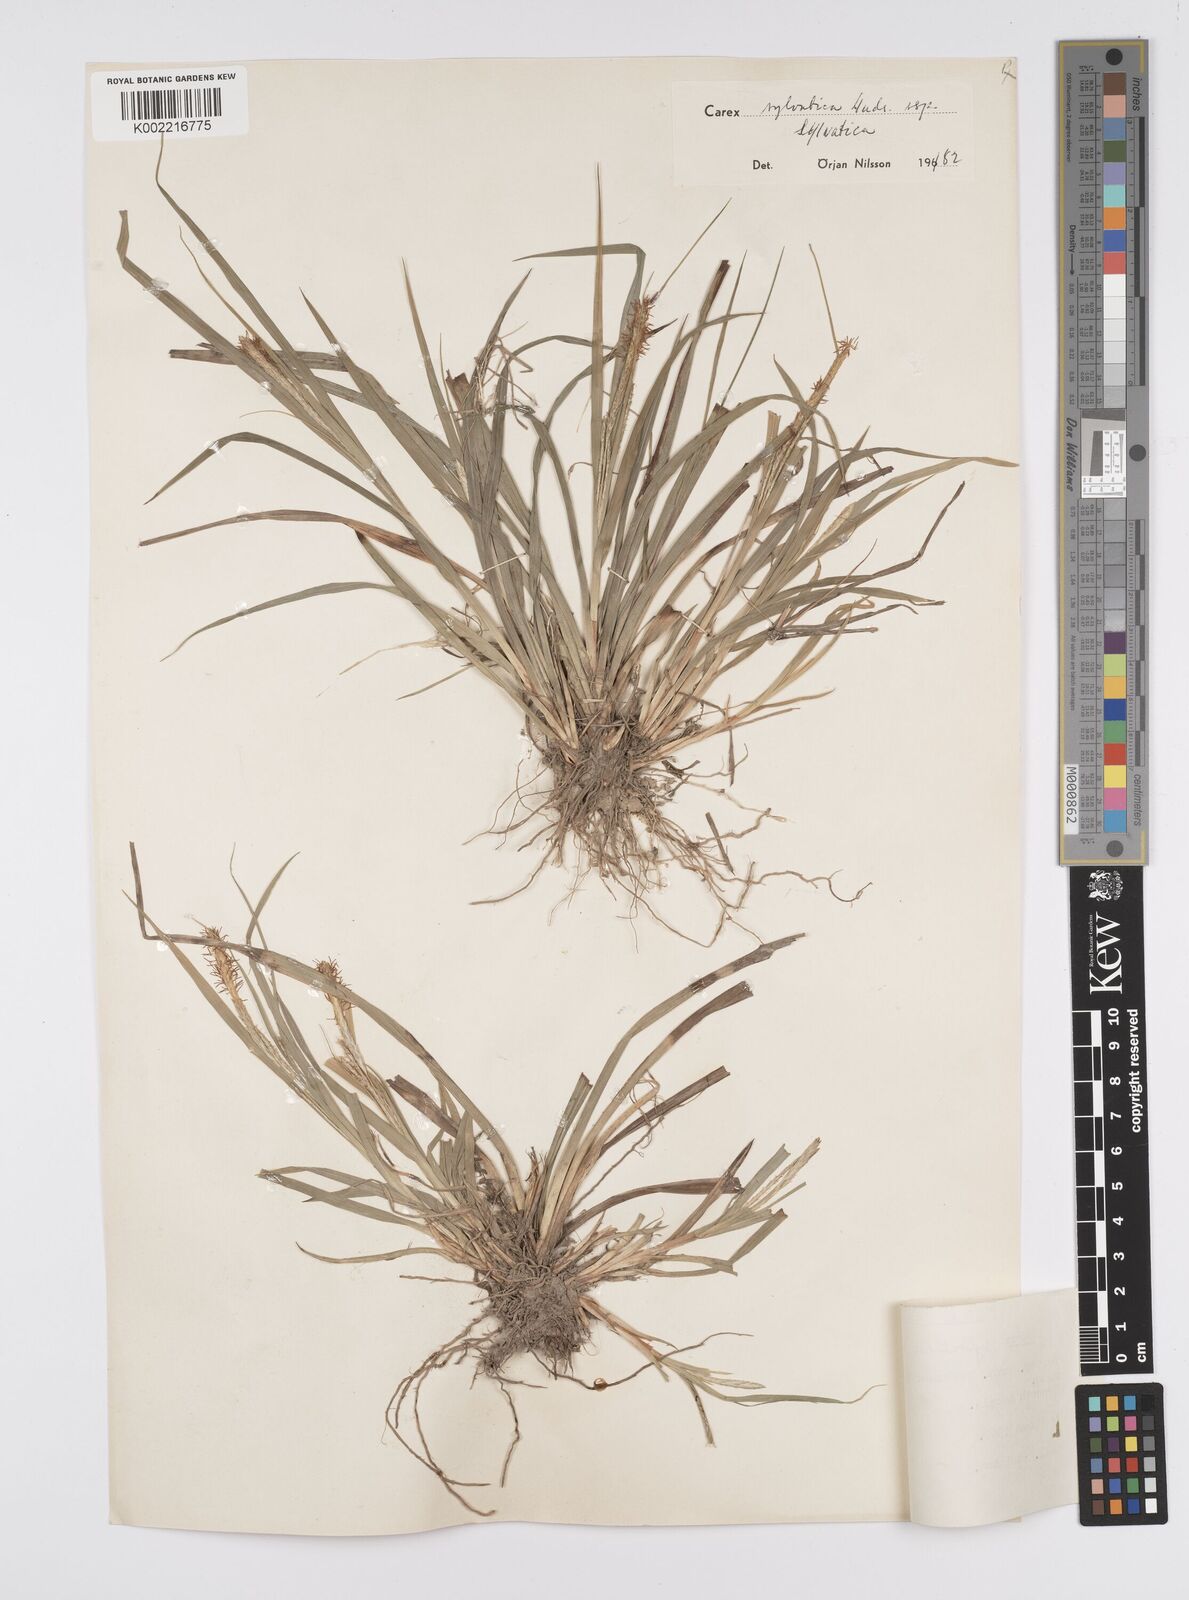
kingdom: Plantae
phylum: Tracheophyta
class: Liliopsida
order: Poales
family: Cyperaceae
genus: Carex
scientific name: Carex sylvatica
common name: Wood-sedge
